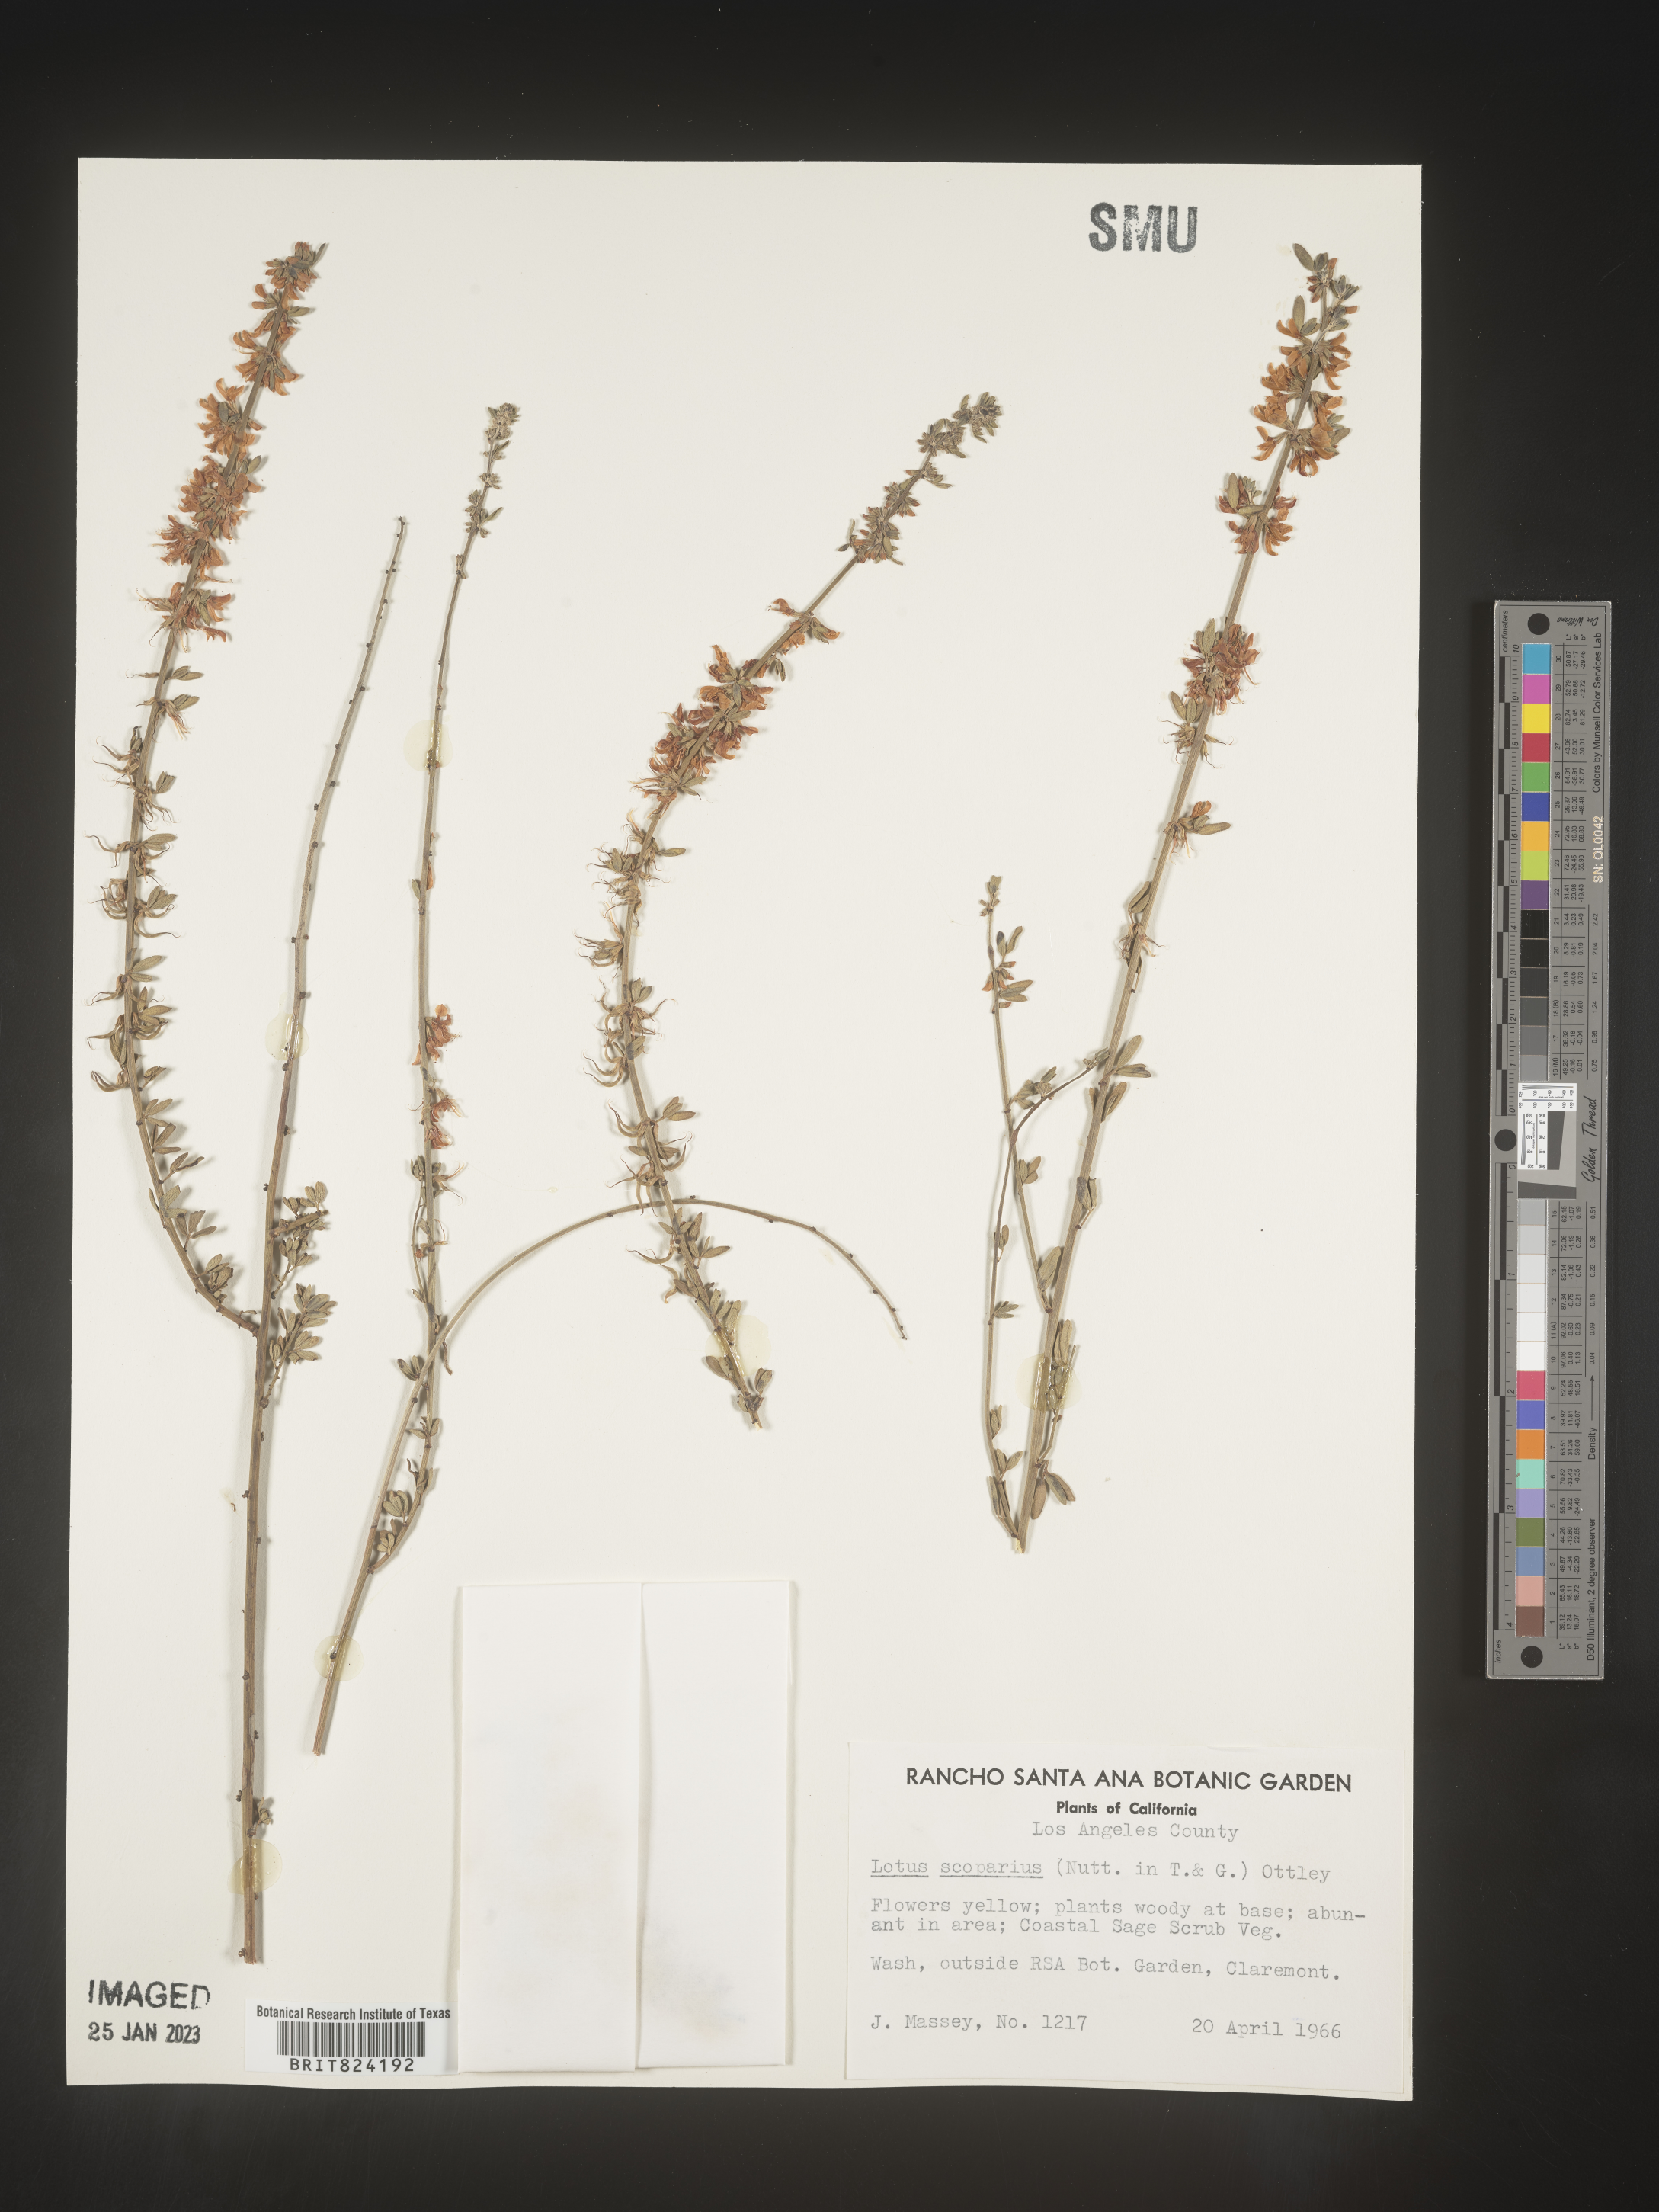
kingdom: Plantae
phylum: Tracheophyta
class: Magnoliopsida
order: Fabales
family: Fabaceae
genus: Lotus
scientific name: Lotus
